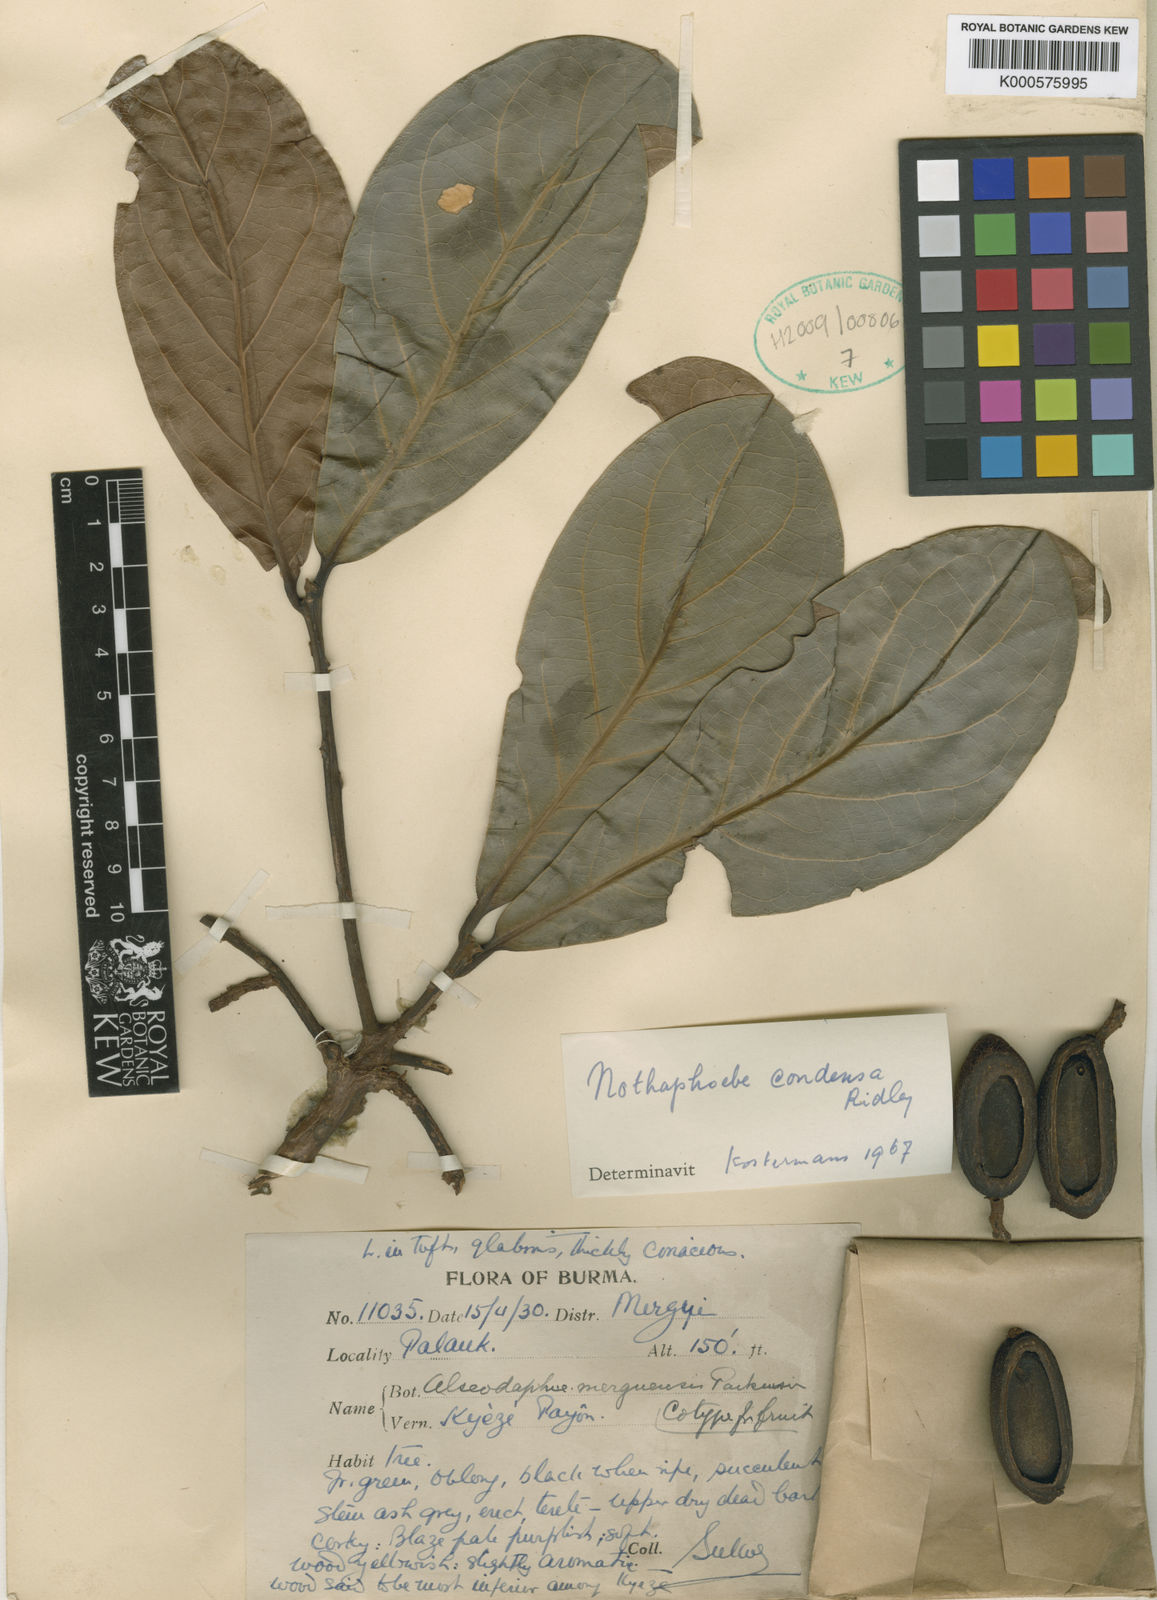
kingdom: Plantae
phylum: Tracheophyta
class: Magnoliopsida
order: Laurales
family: Lauraceae
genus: Nothaphoebe
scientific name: Nothaphoebe condensa
